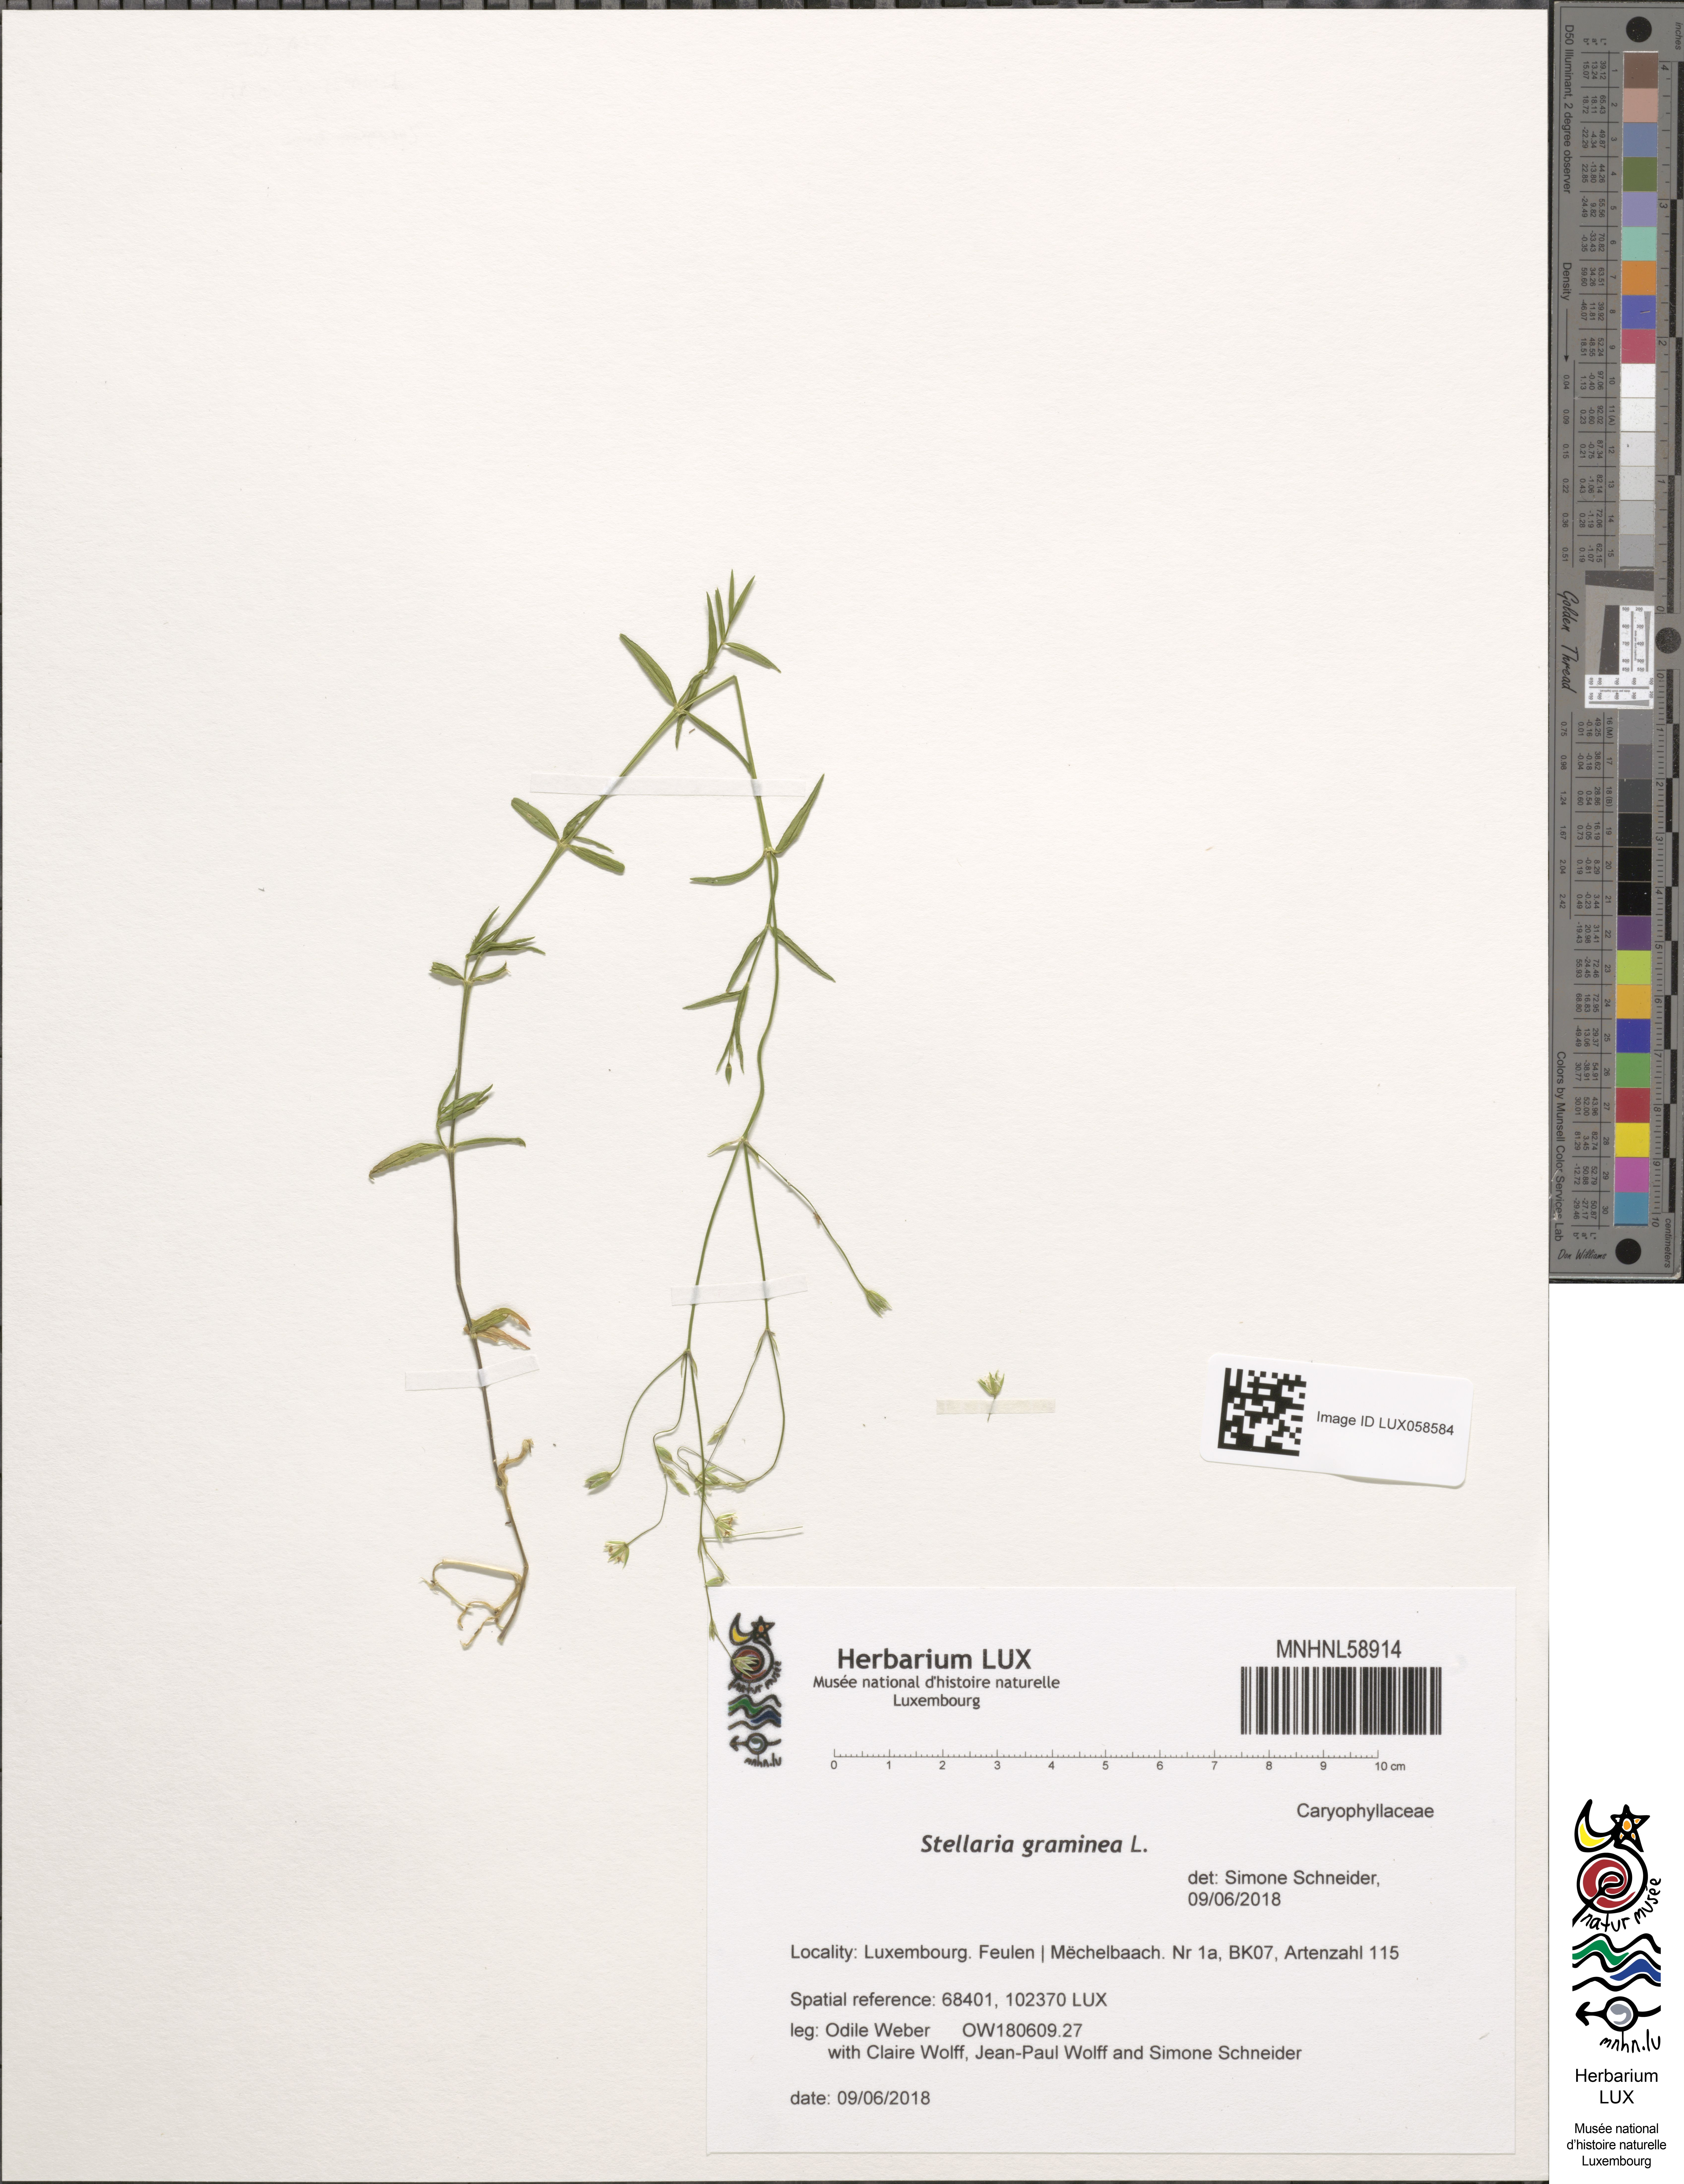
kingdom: Plantae
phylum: Tracheophyta
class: Magnoliopsida
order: Caryophyllales
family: Caryophyllaceae
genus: Stellaria
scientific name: Stellaria graminea
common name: Grass-like starwort
